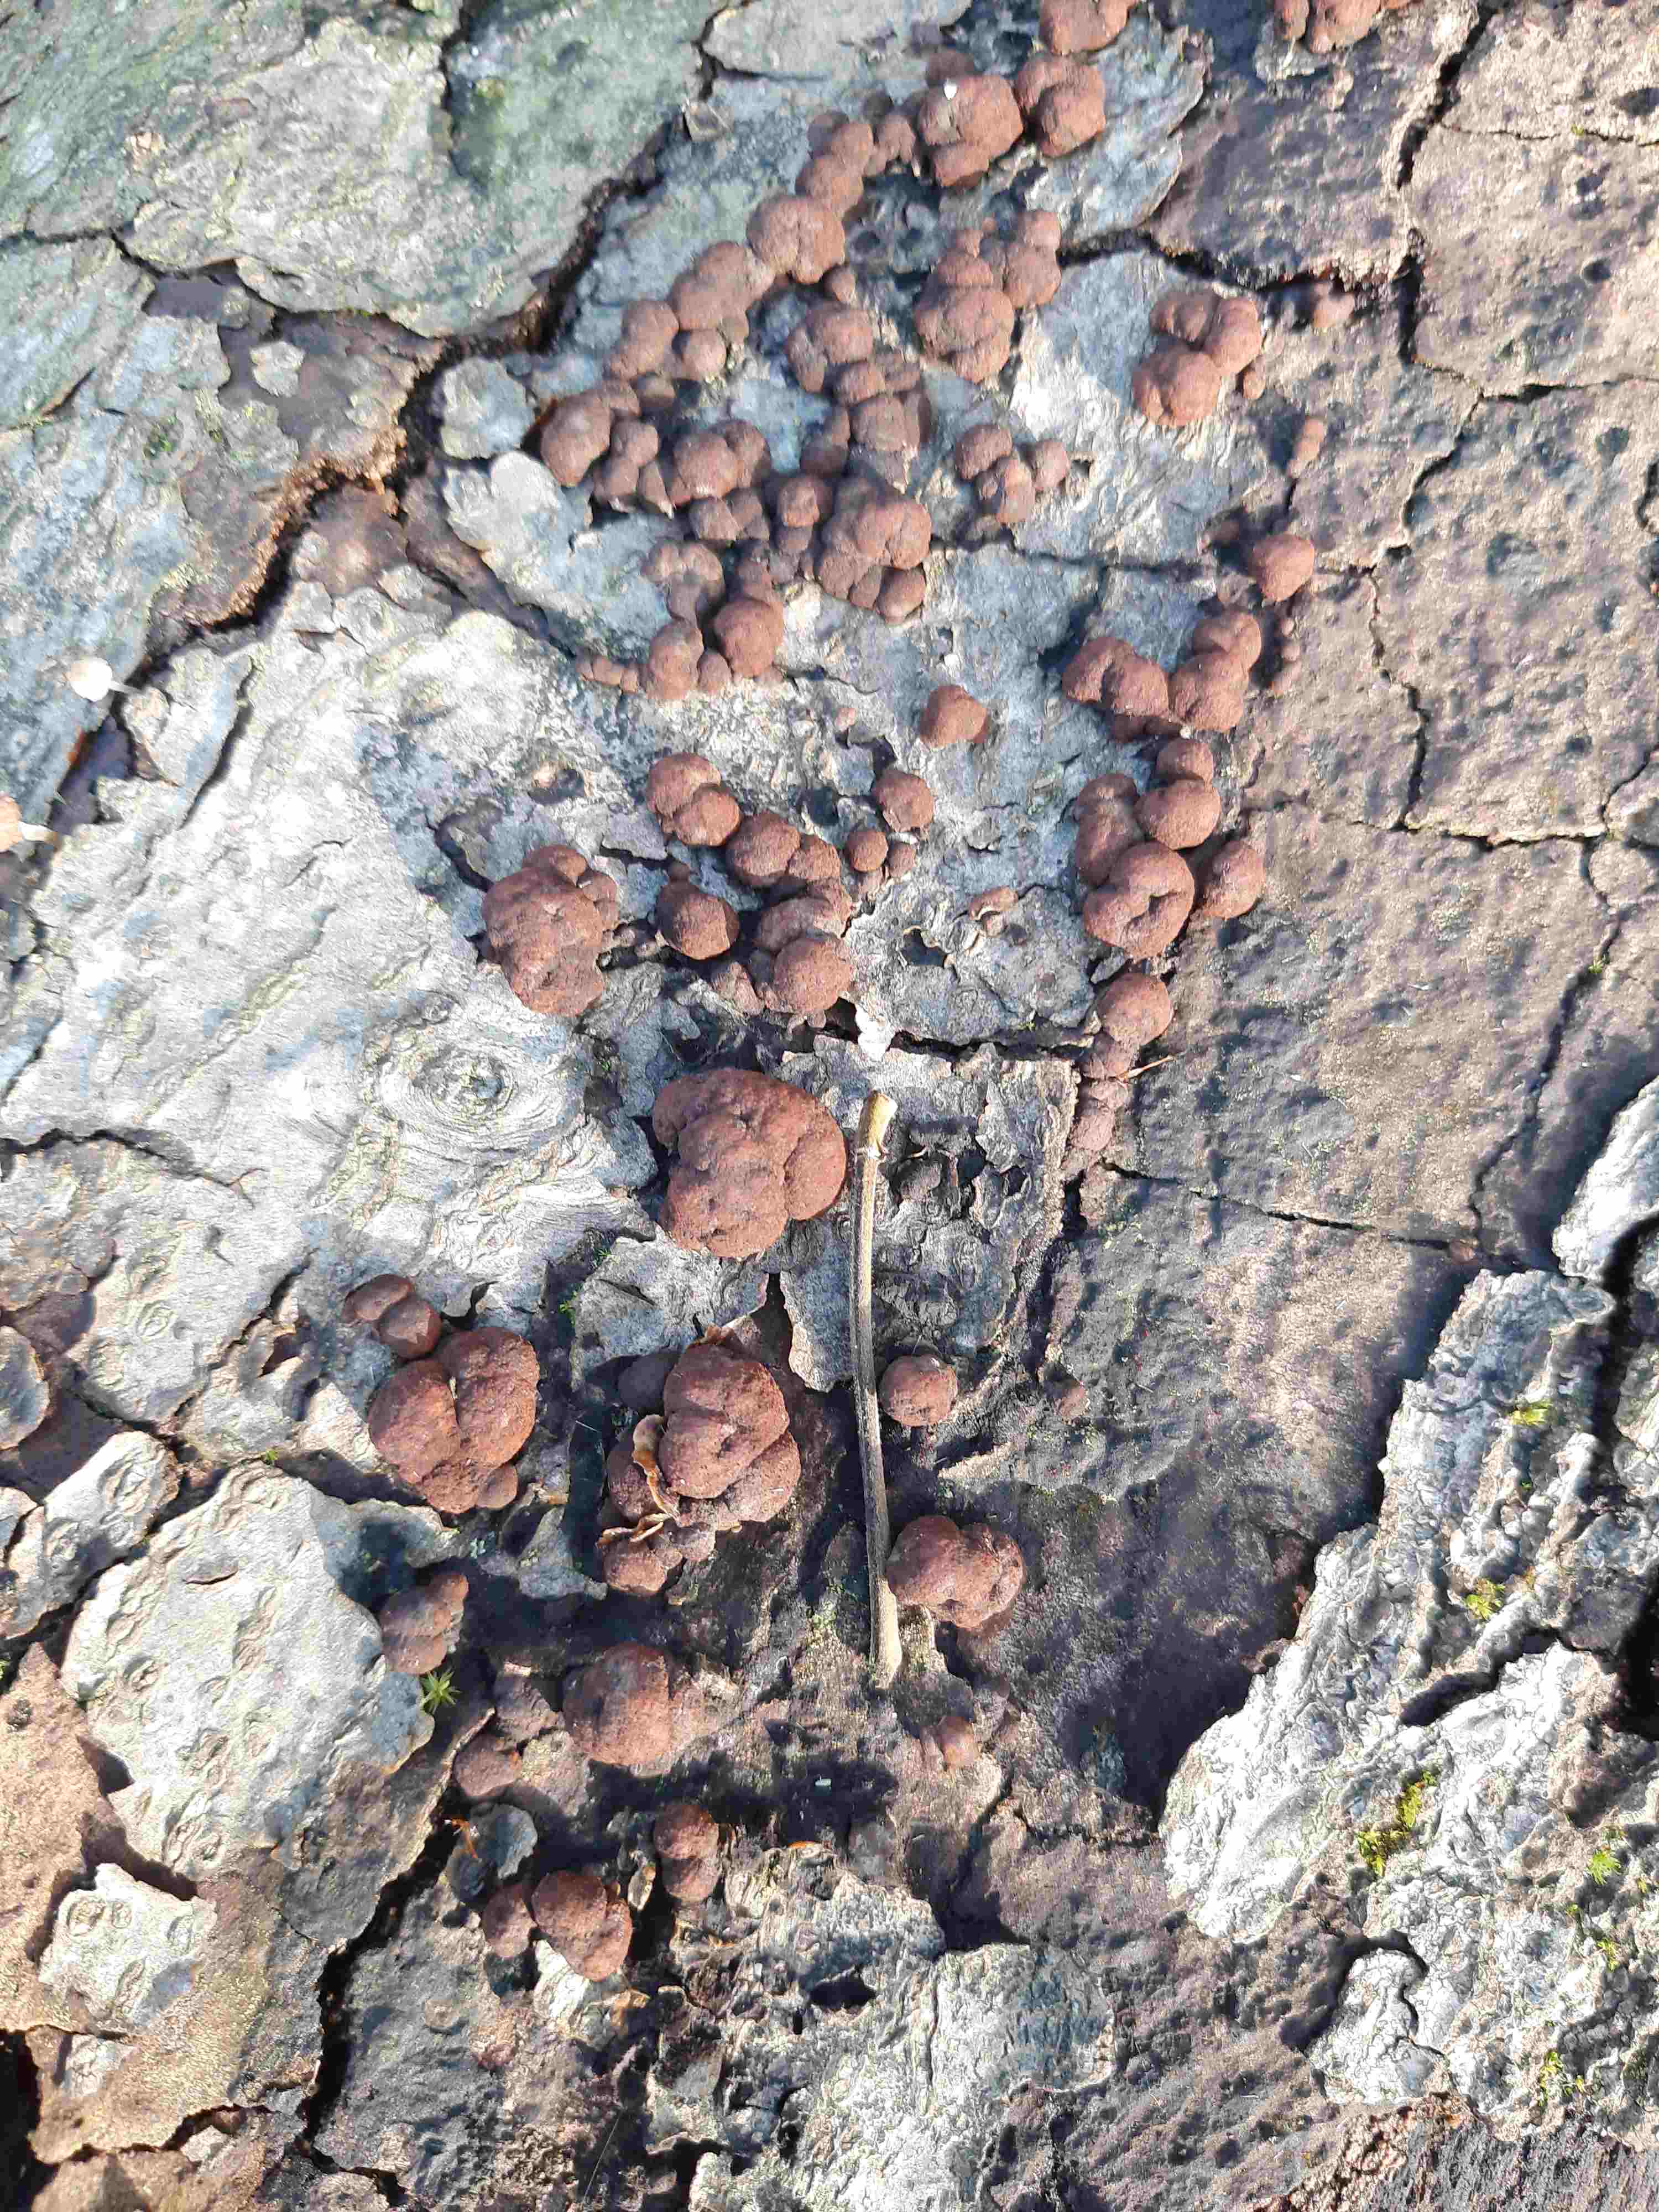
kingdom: Fungi
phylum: Ascomycota
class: Sordariomycetes
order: Xylariales
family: Hypoxylaceae
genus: Hypoxylon
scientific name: Hypoxylon fragiforme
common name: kuljordbær
